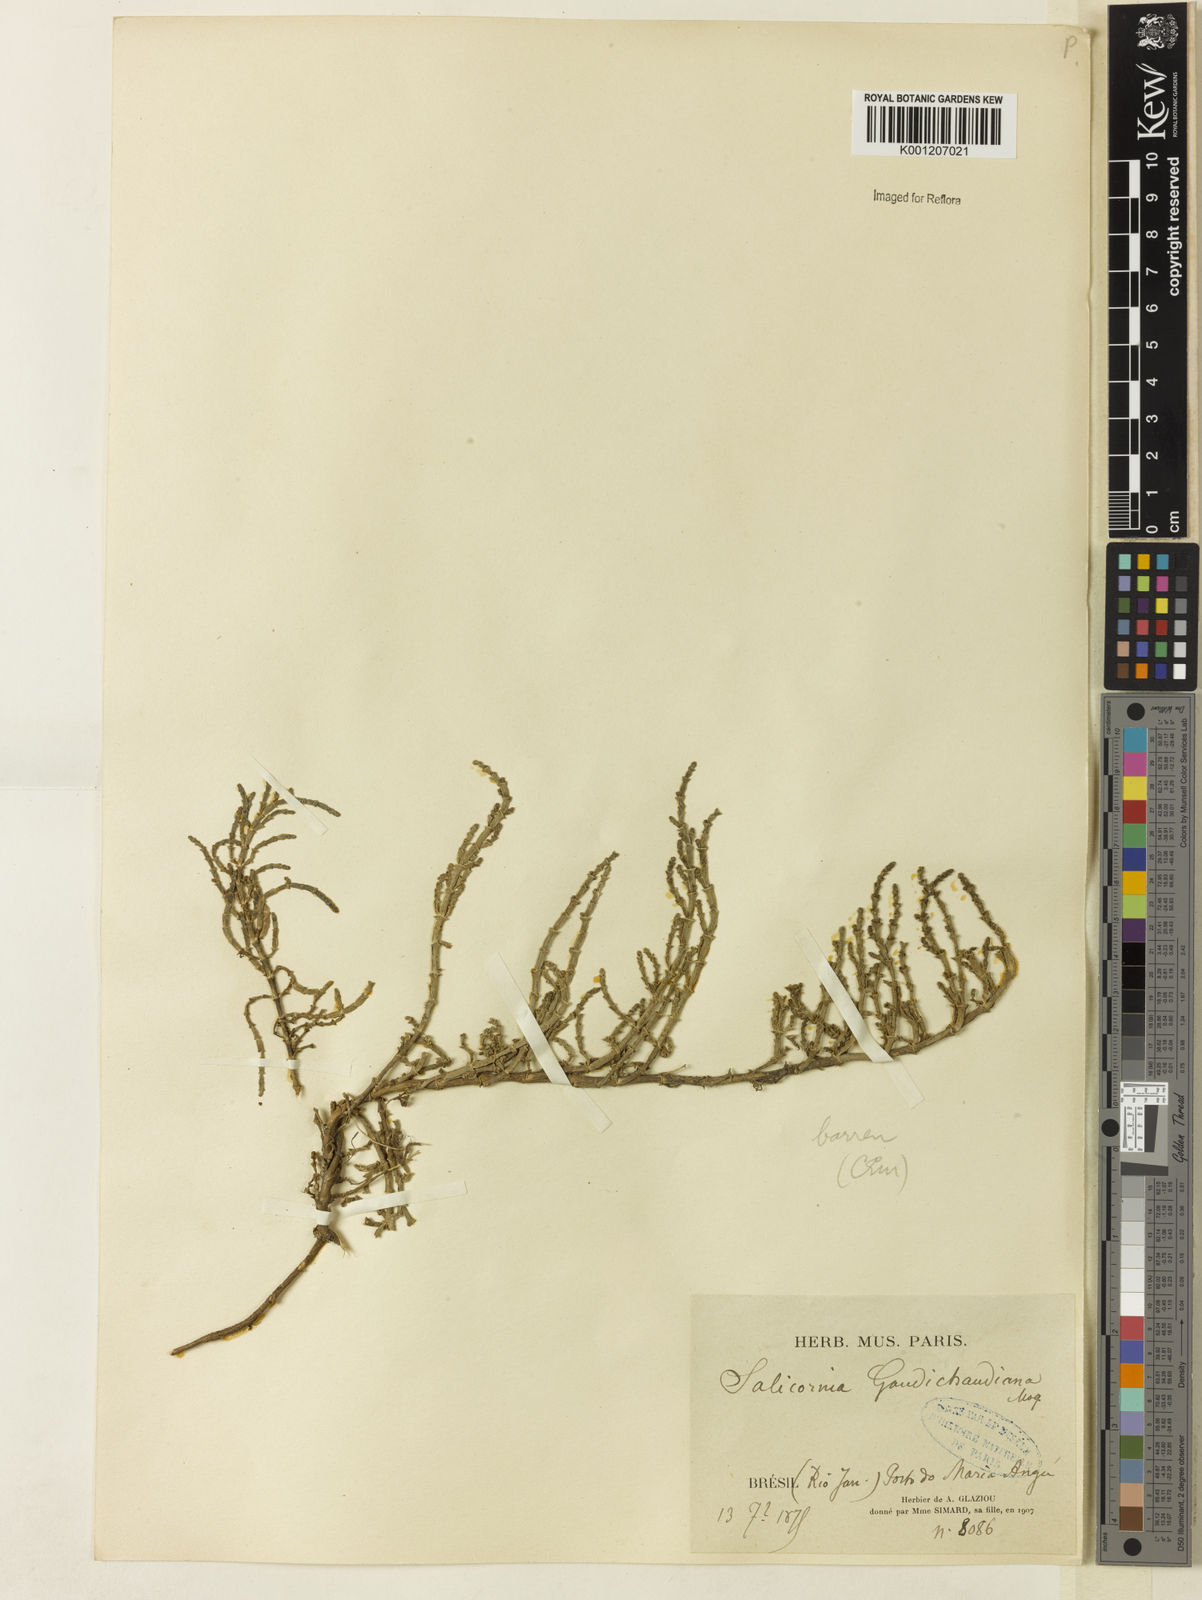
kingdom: Plantae
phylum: Tracheophyta
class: Magnoliopsida
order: Caryophyllales
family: Amaranthaceae
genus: Salicornia
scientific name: Salicornia
